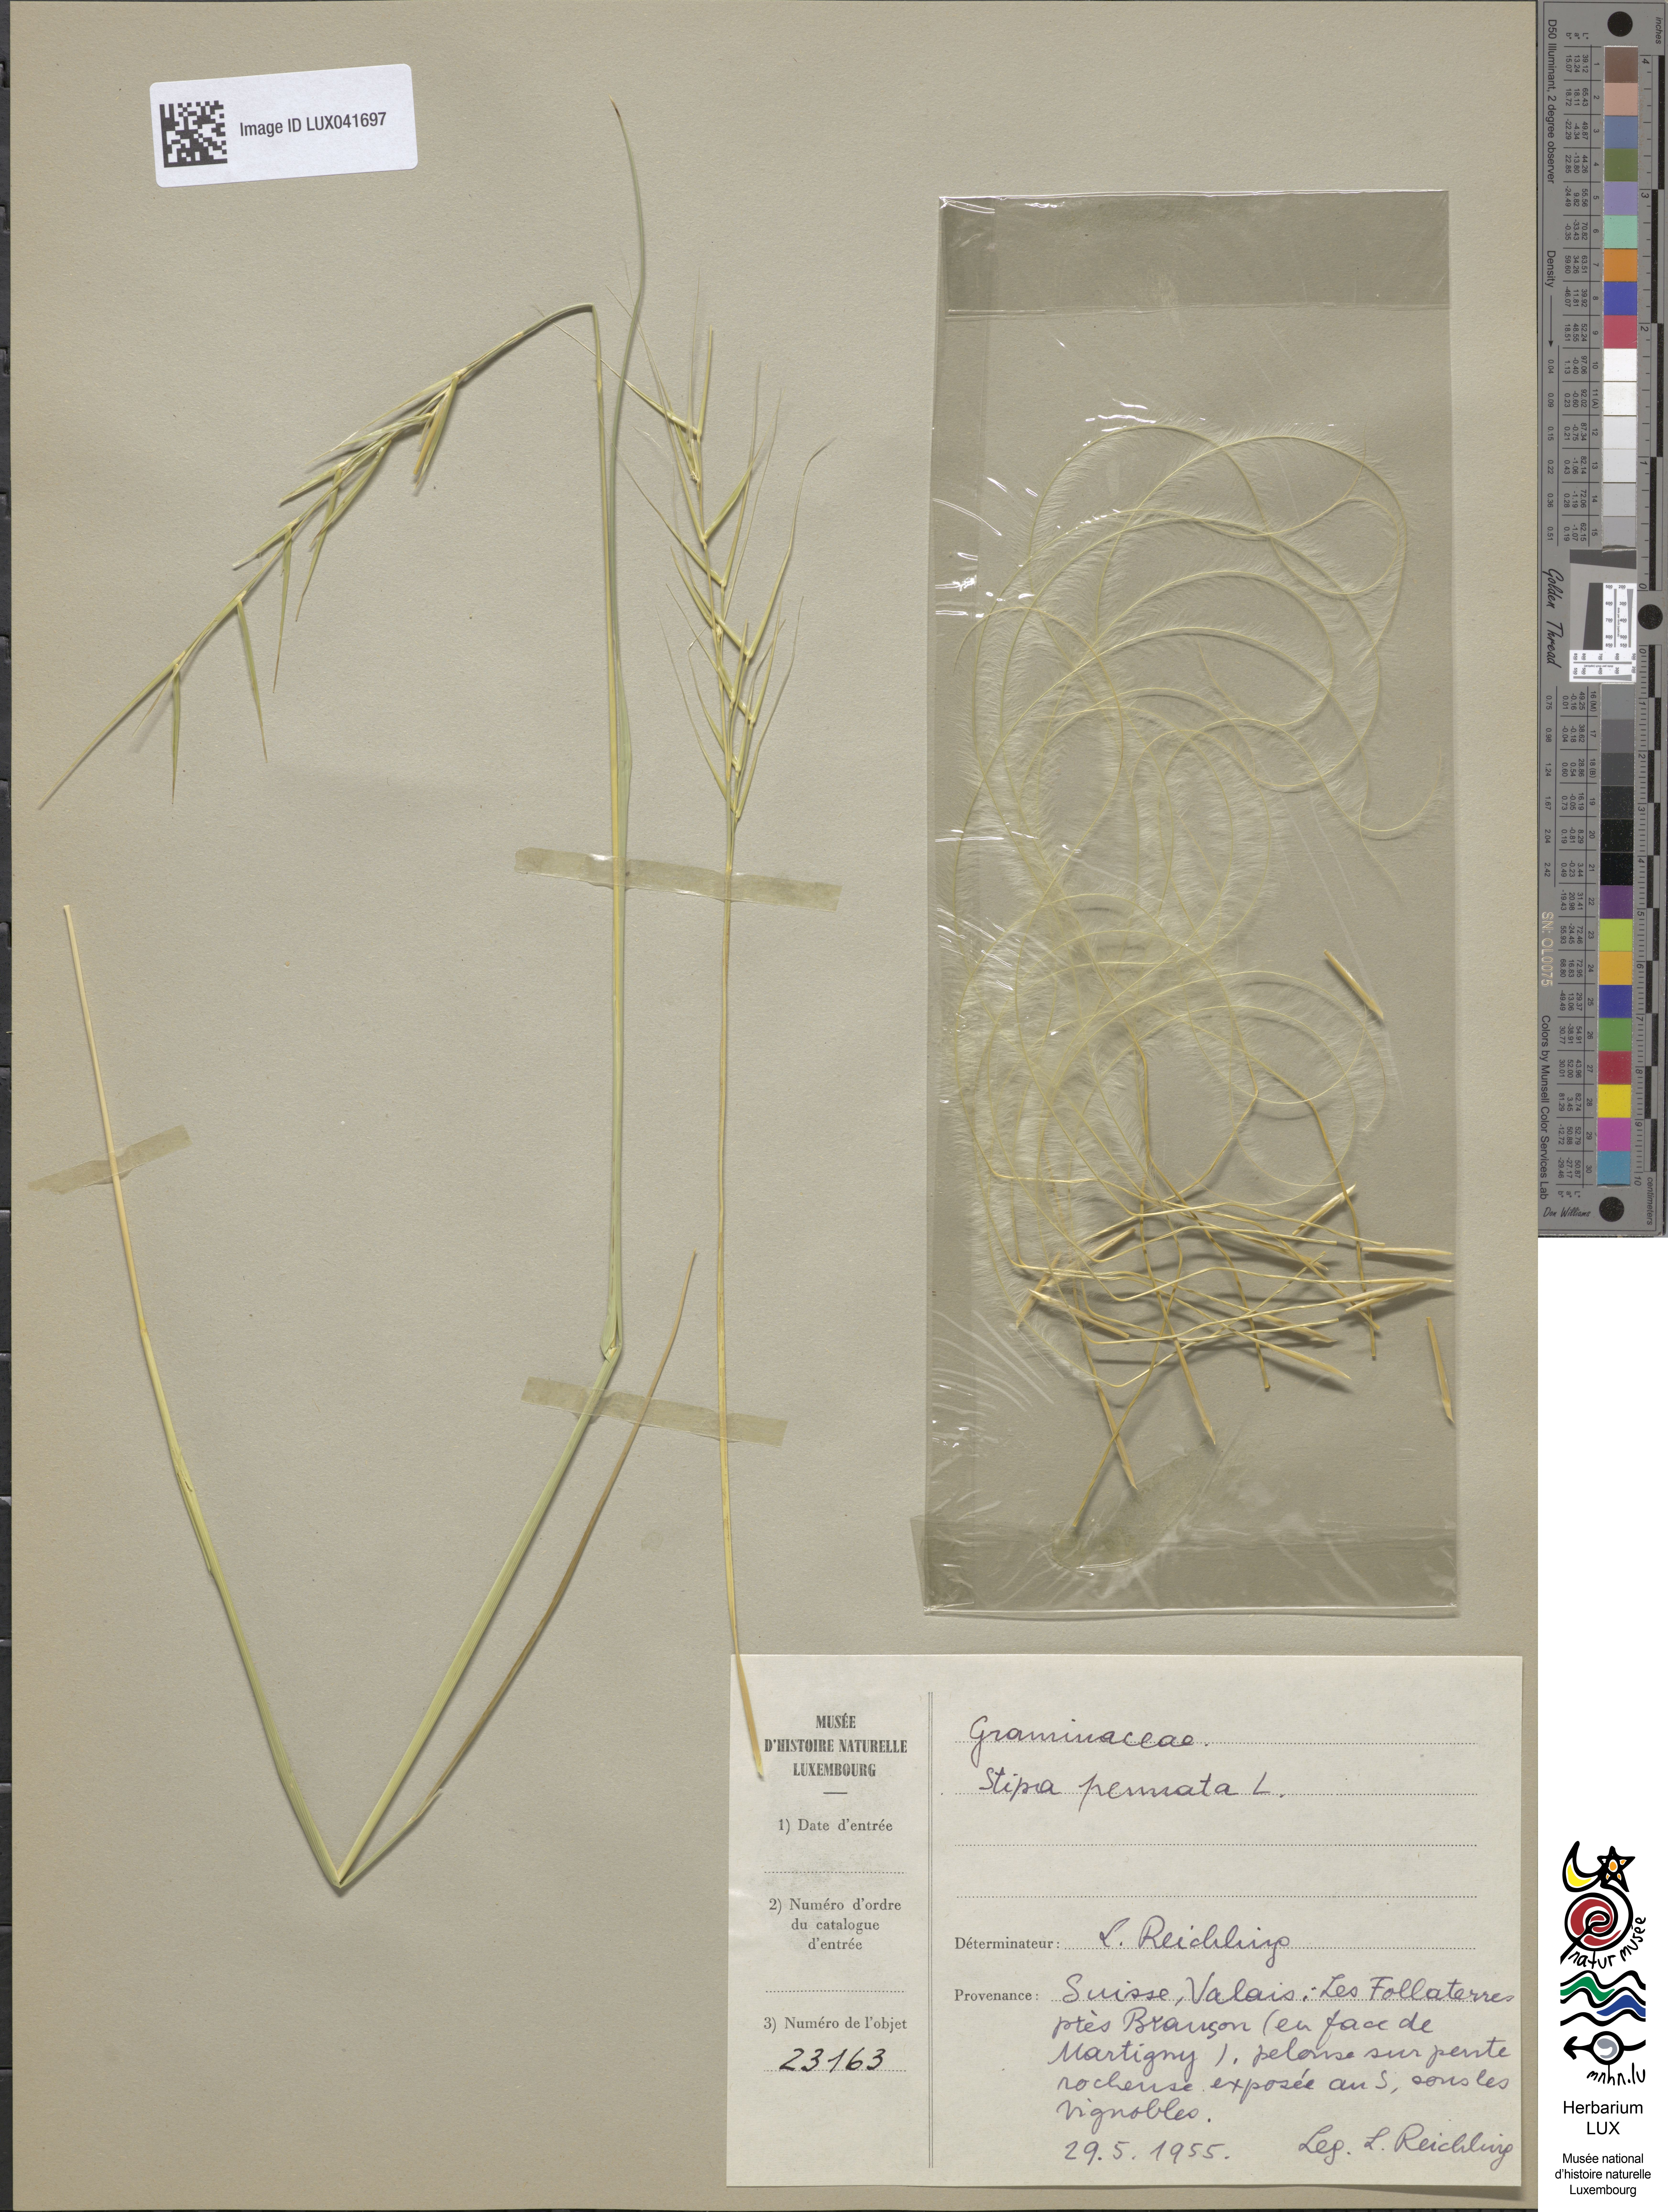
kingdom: Plantae
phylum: Tracheophyta
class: Liliopsida
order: Poales
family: Poaceae
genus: Stipa
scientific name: Stipa pennata
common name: European feather grass
